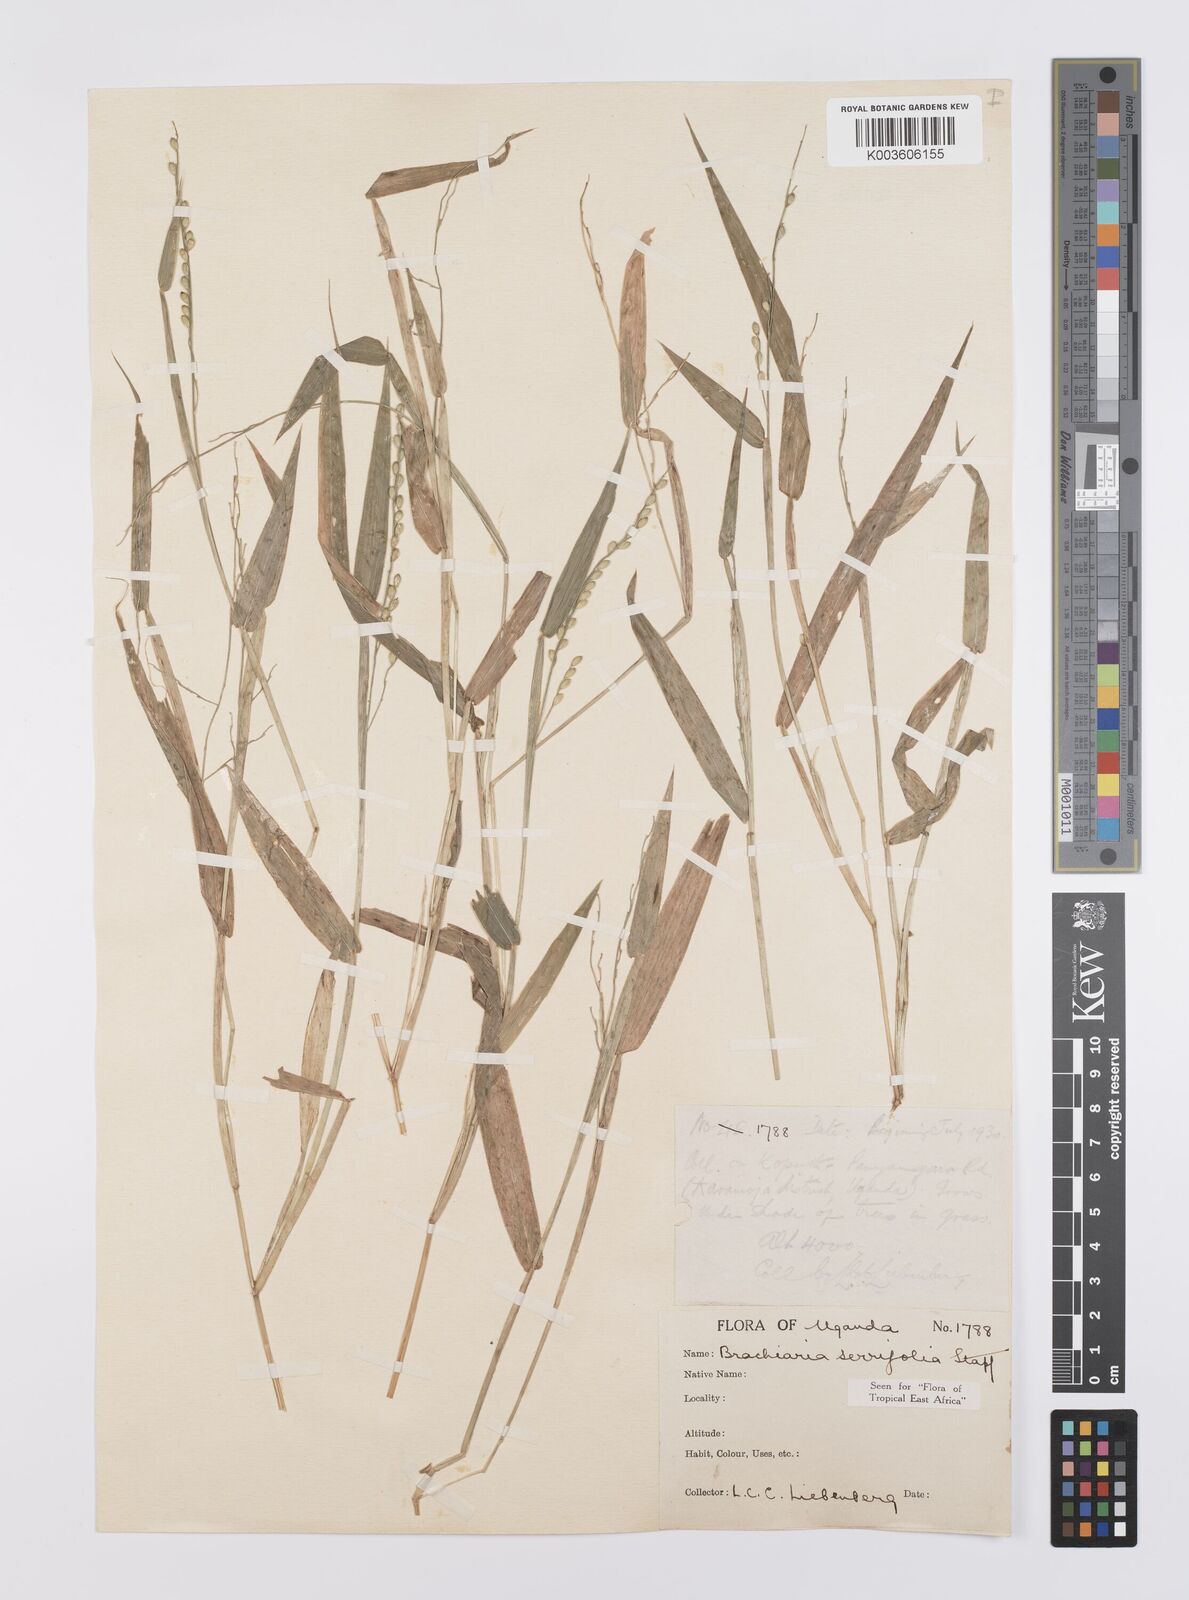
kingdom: Plantae
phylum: Tracheophyta
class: Liliopsida
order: Poales
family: Poaceae
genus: Urochloa
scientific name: Urochloa serrifolia
